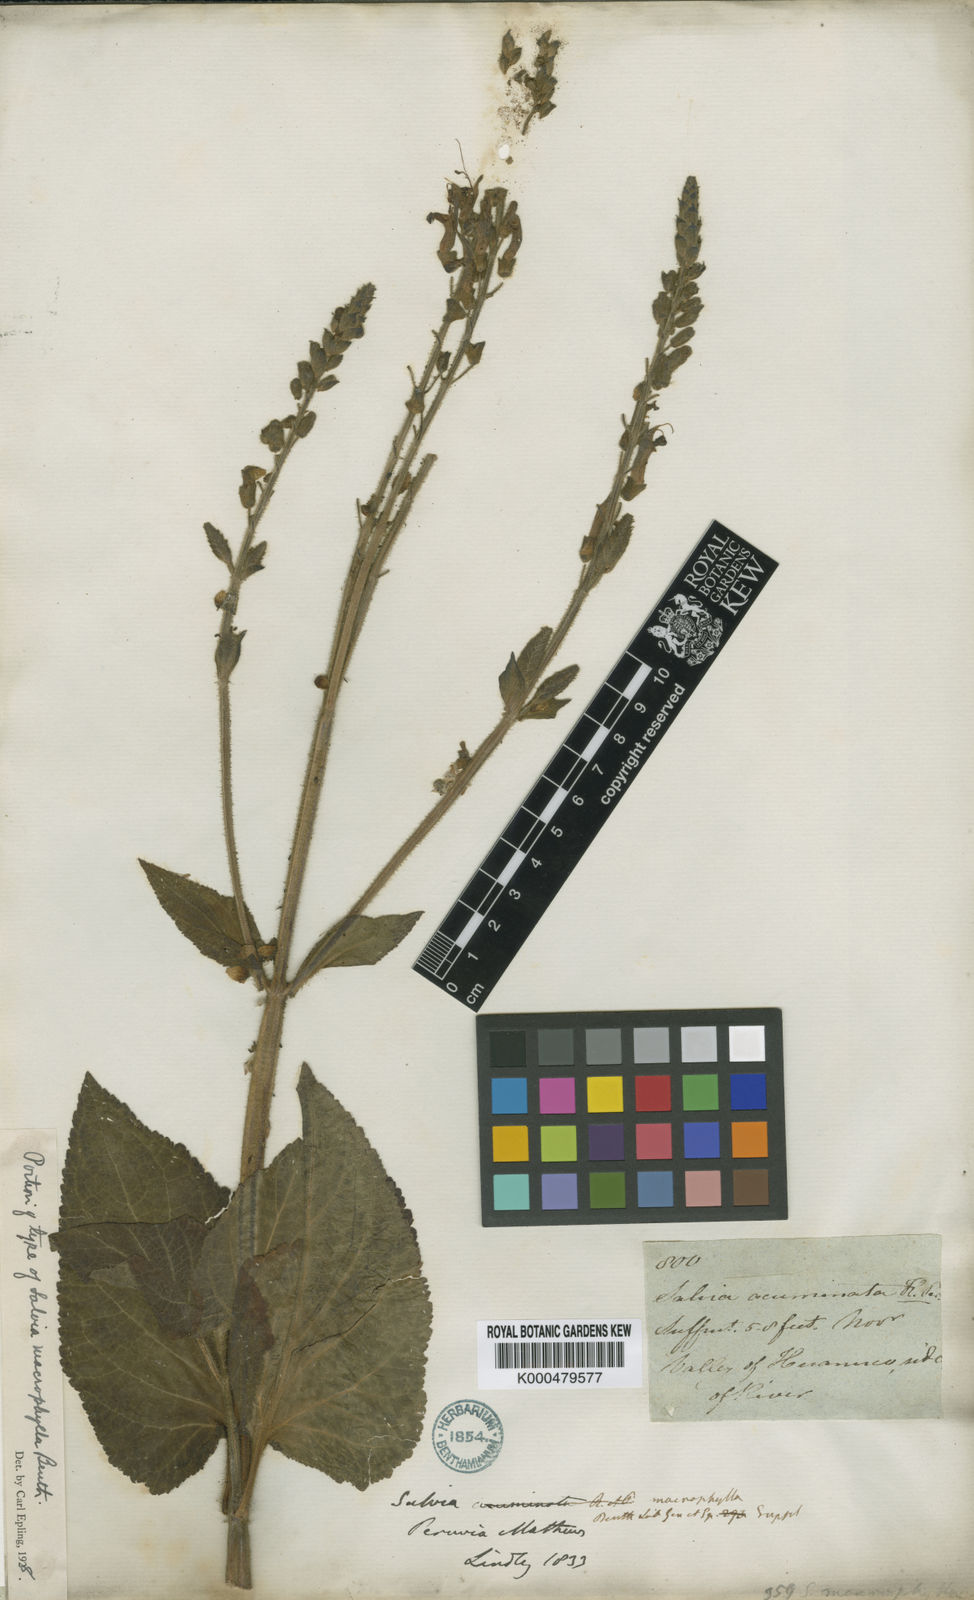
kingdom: Plantae
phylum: Tracheophyta
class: Magnoliopsida
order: Lamiales
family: Lamiaceae
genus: Salvia
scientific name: Salvia macrophylla
